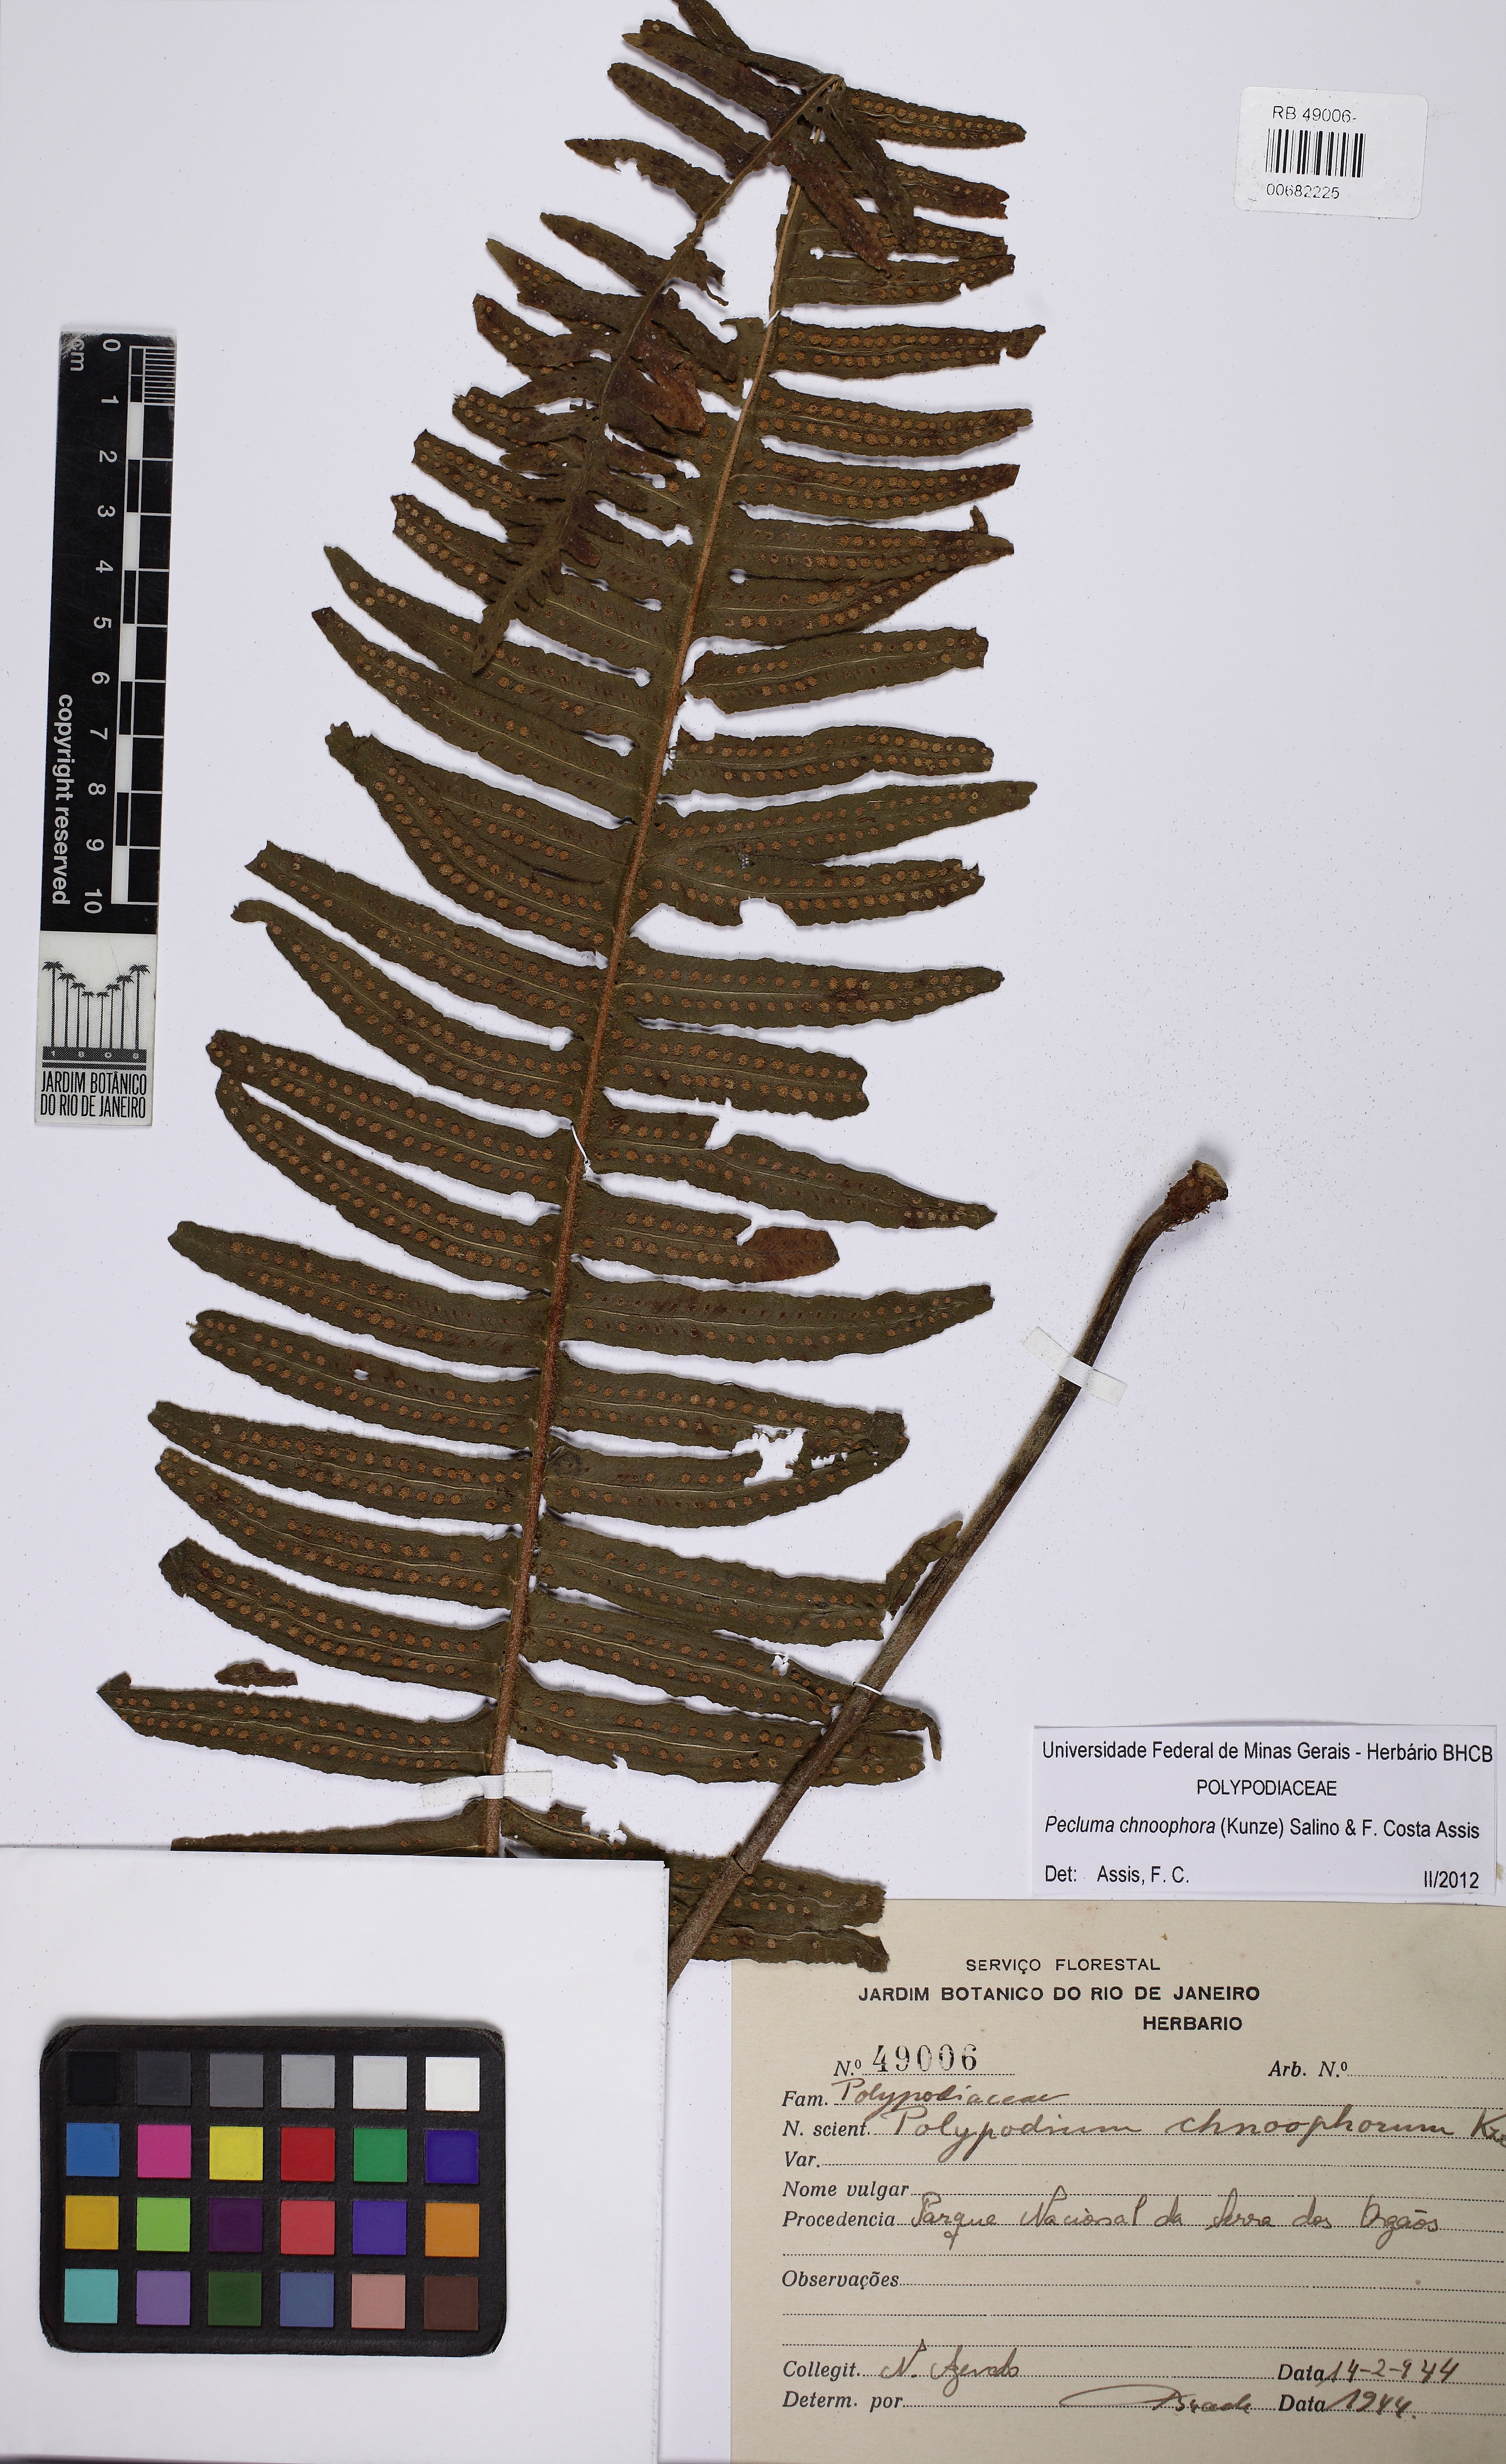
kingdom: Plantae
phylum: Tracheophyta
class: Polypodiopsida
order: Polypodiales
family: Polypodiaceae
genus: Pecluma
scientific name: Pecluma chnoophora
